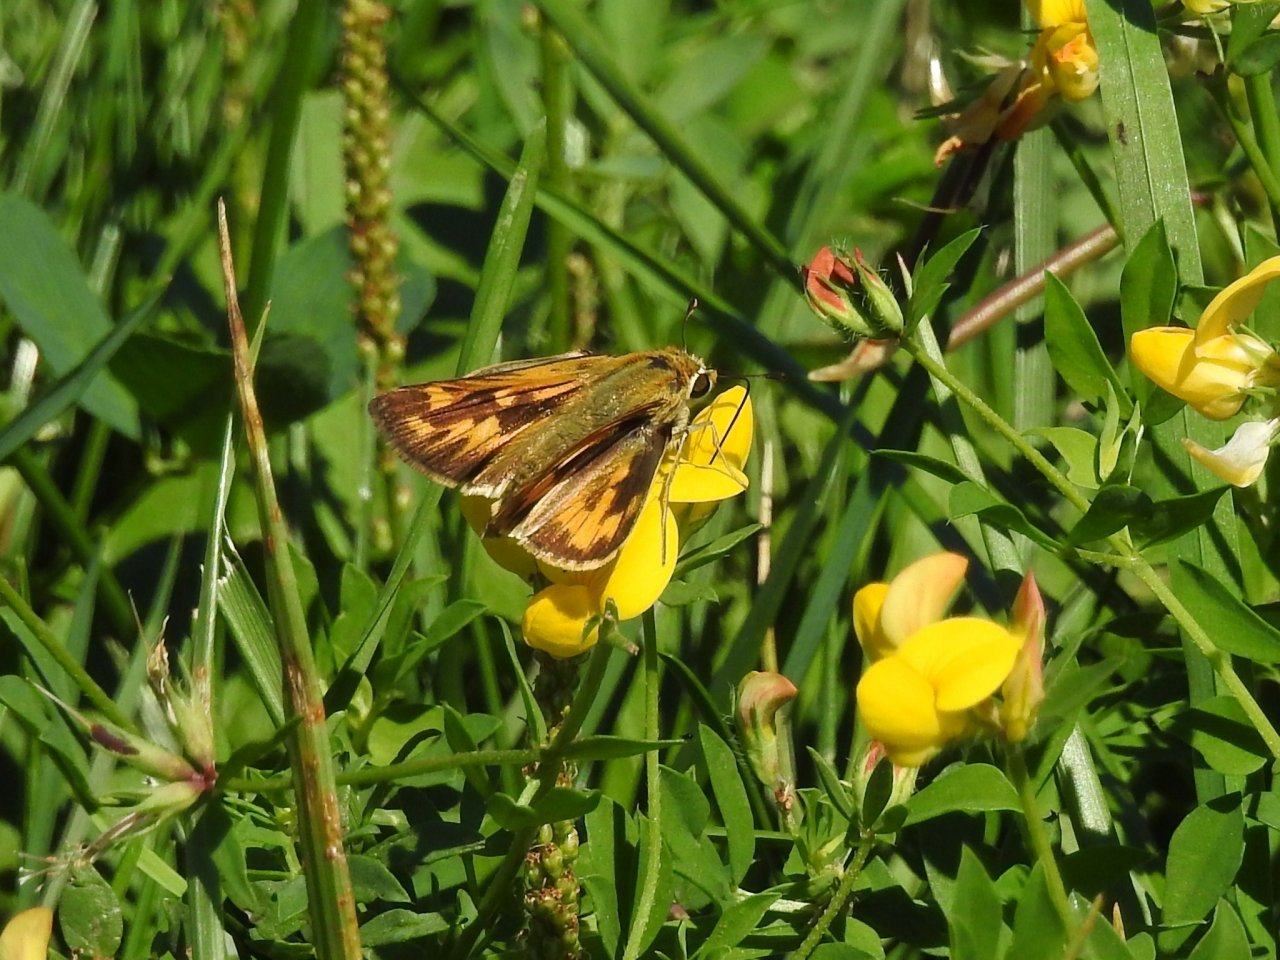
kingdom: Animalia
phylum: Arthropoda
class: Insecta
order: Lepidoptera
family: Hesperiidae
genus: Hylephila
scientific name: Hylephila phyleus
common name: Fiery Skipper
